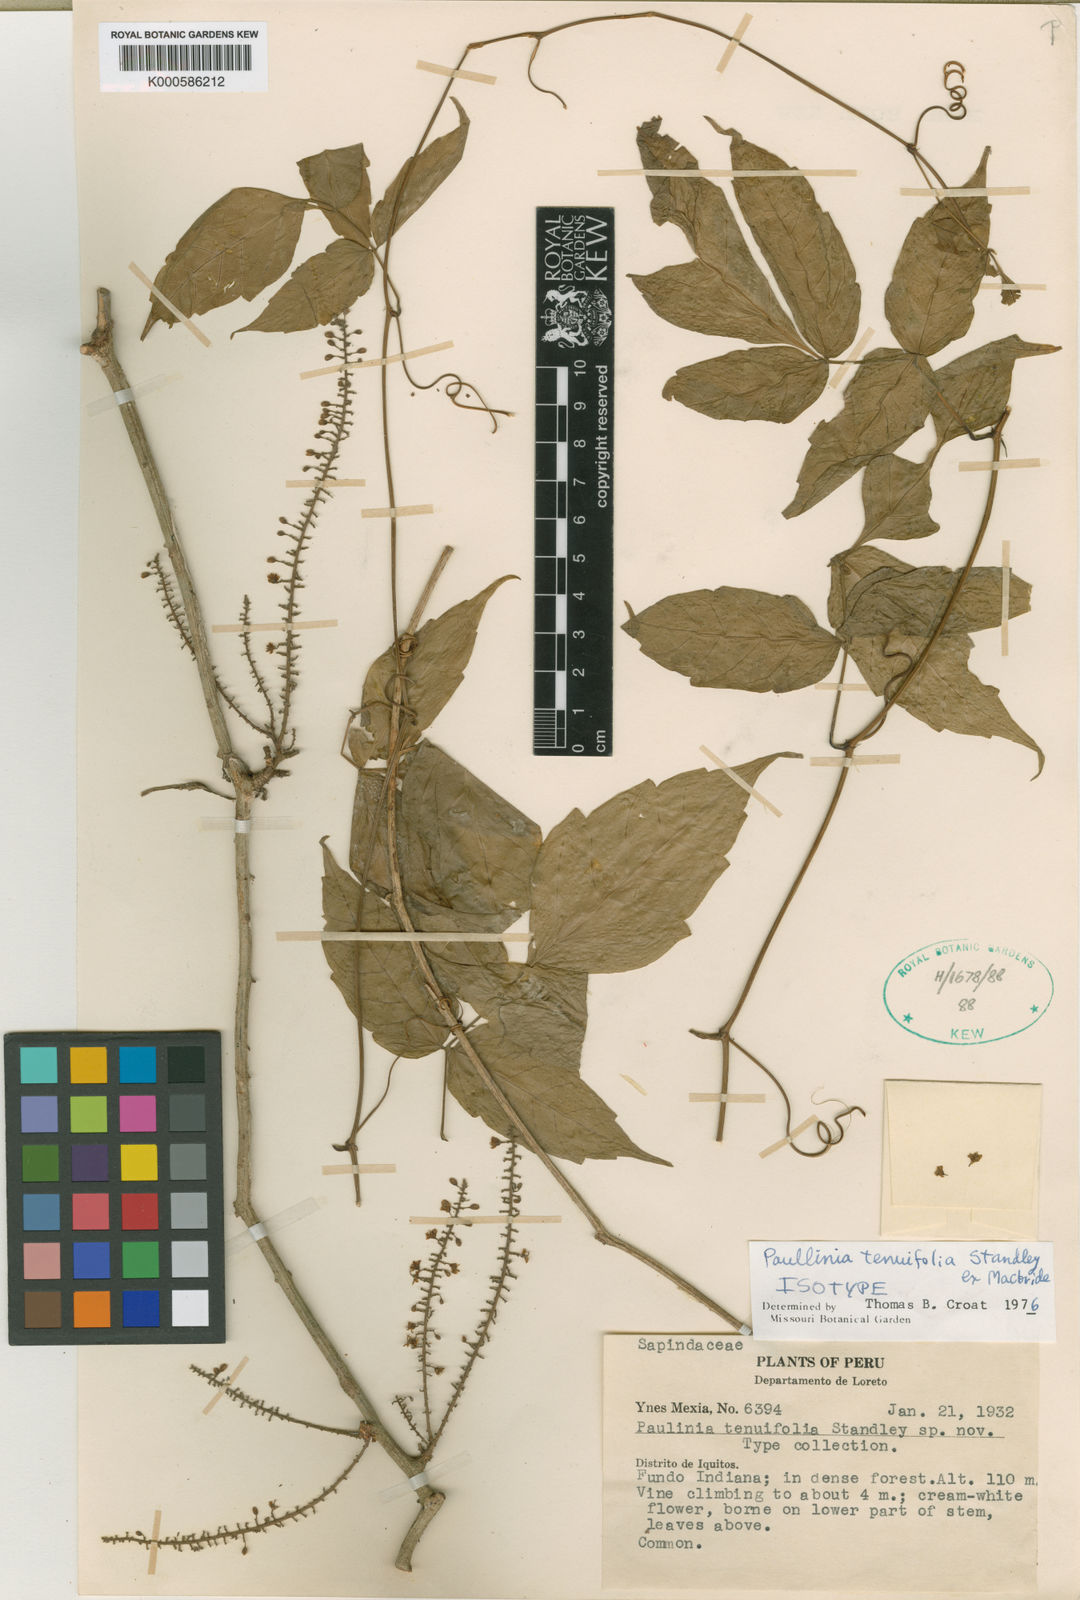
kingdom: Plantae
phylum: Tracheophyta
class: Magnoliopsida
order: Sapindales
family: Sapindaceae
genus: Paullinia
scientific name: Paullinia tenuifolia
